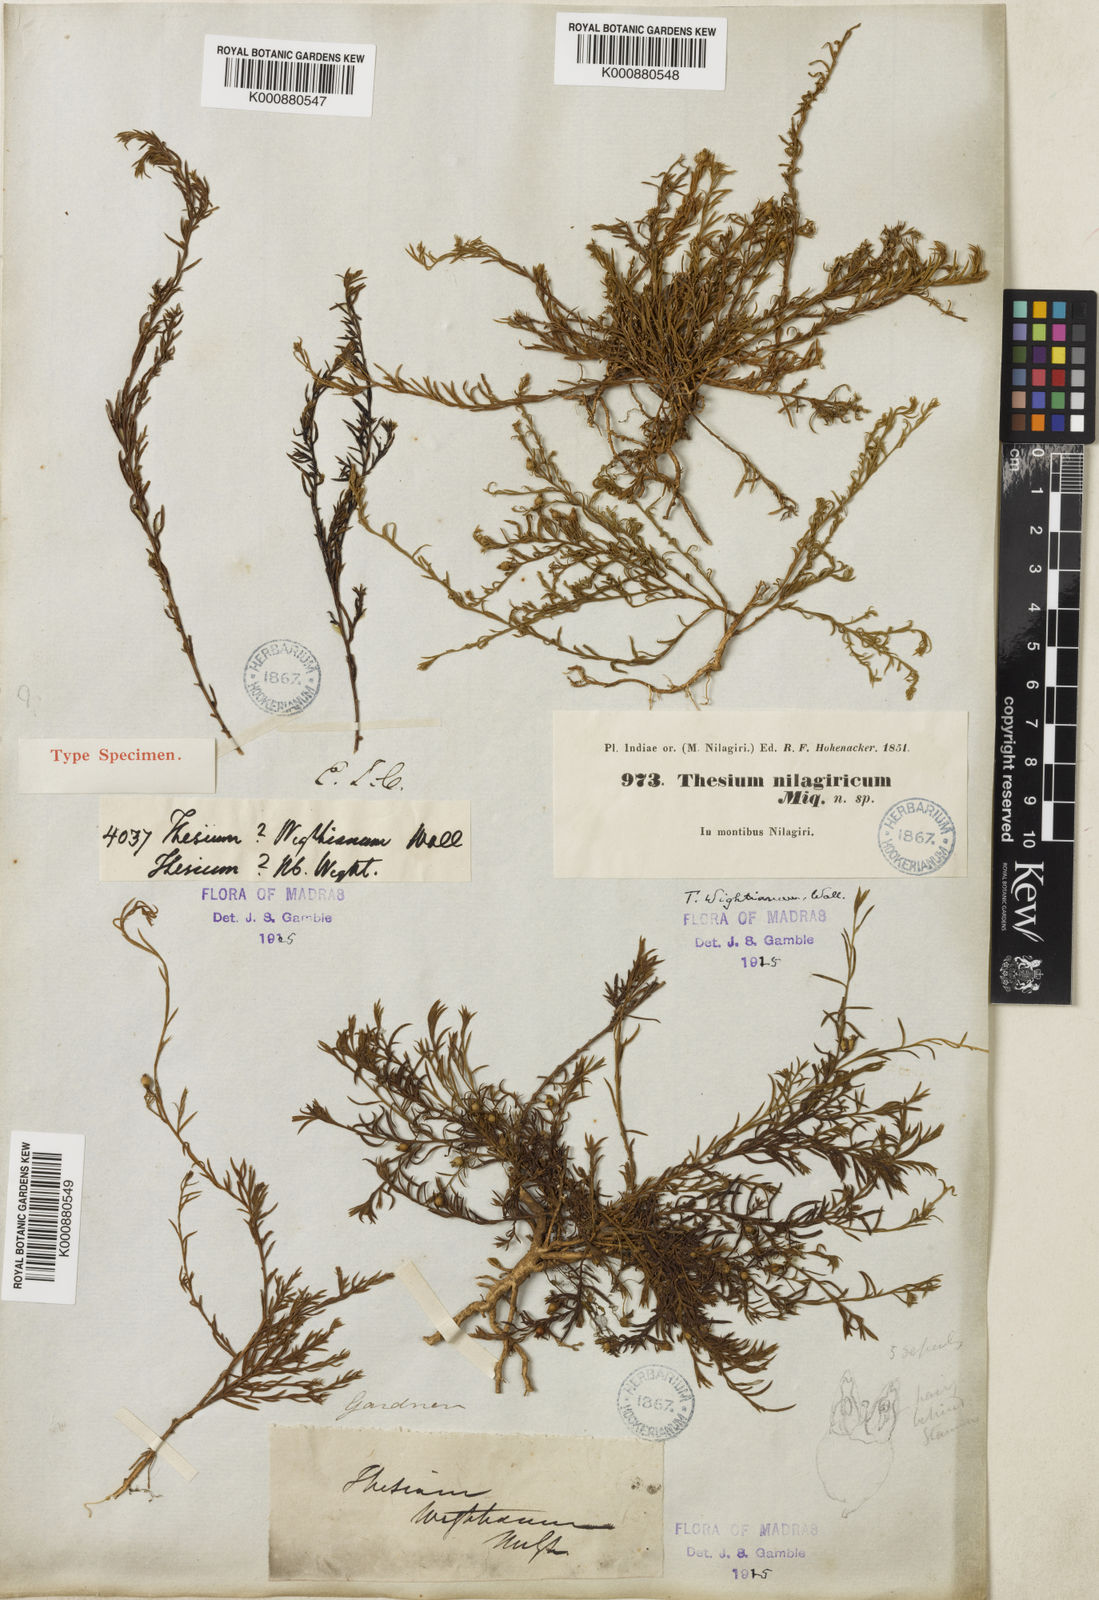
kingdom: Plantae
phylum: Tracheophyta
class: Magnoliopsida
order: Santalales
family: Thesiaceae
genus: Thesium
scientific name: Thesium
